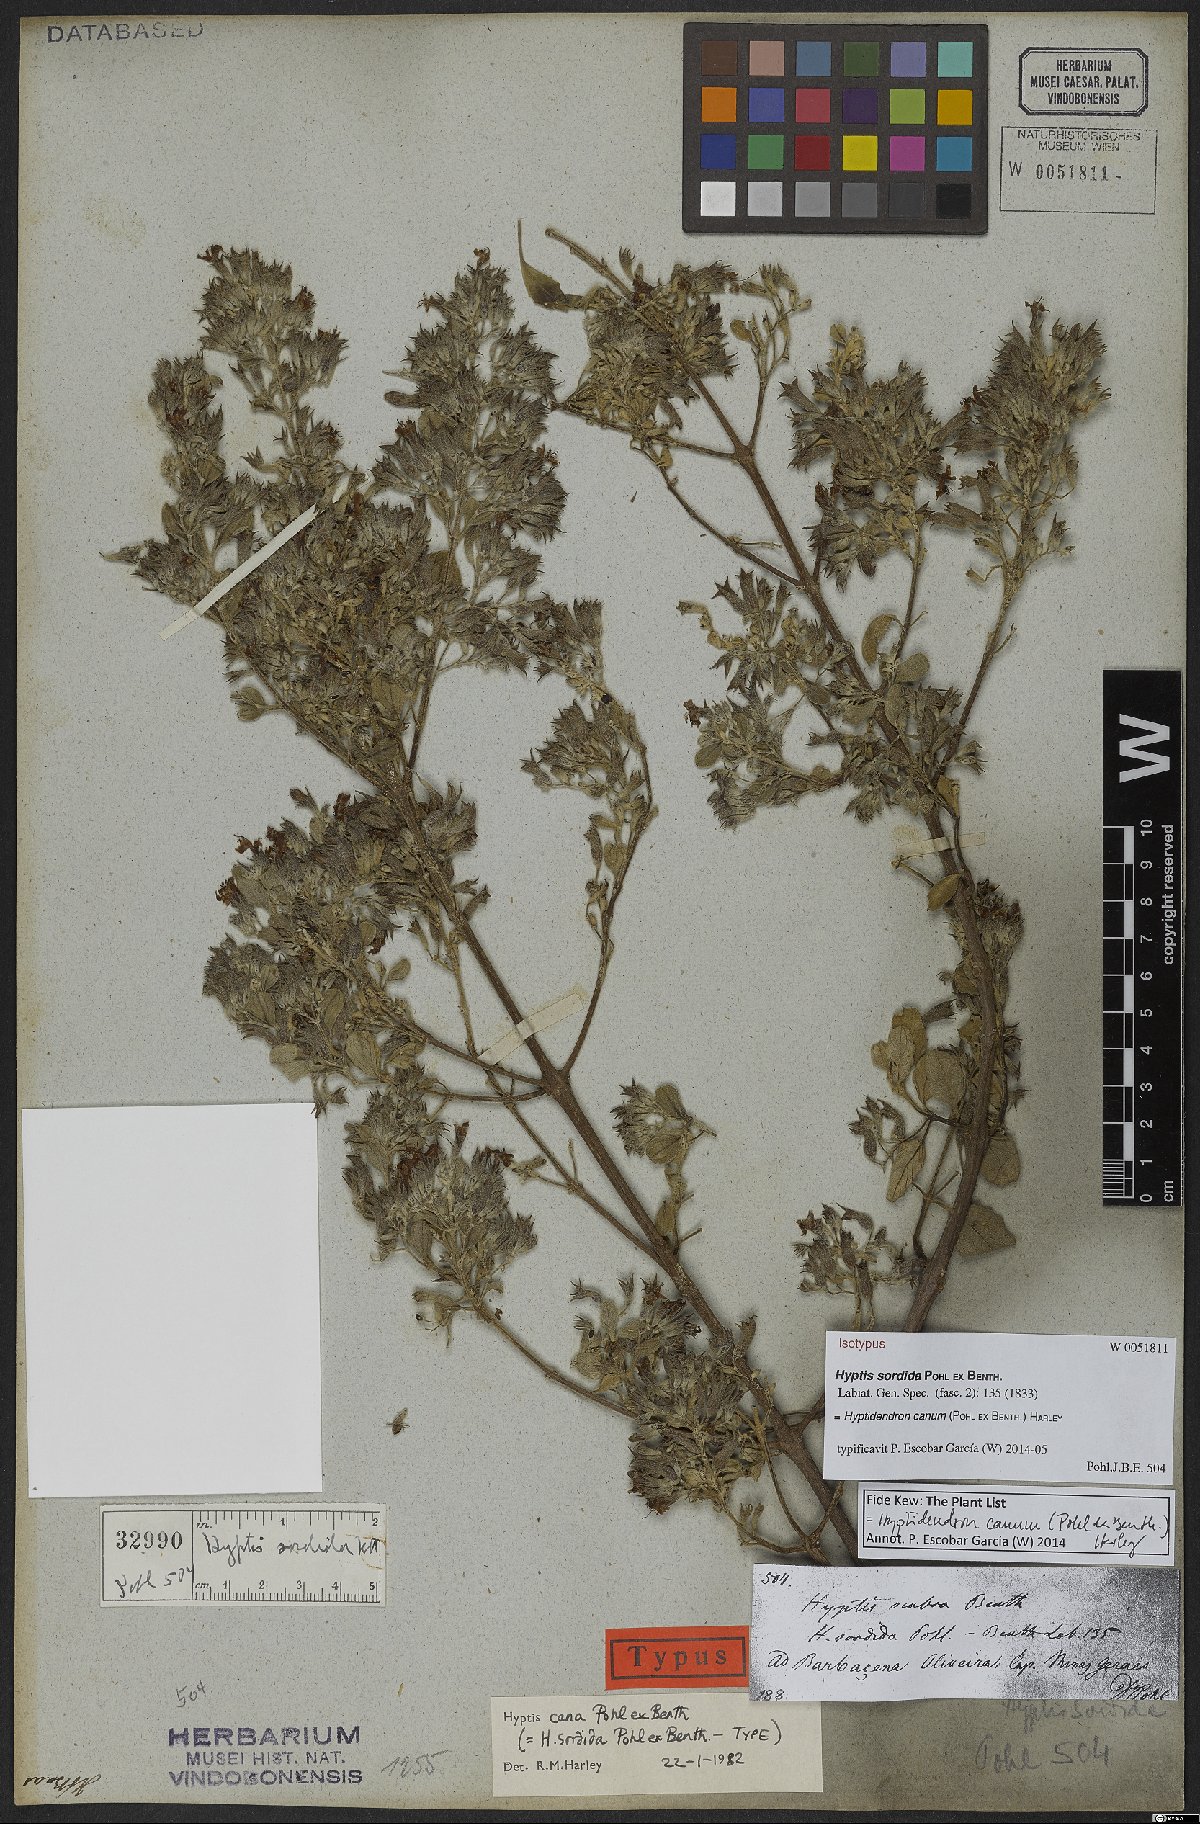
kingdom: Plantae
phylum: Tracheophyta
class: Magnoliopsida
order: Lamiales
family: Lamiaceae
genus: Hyptidendron
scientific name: Hyptidendron canum
